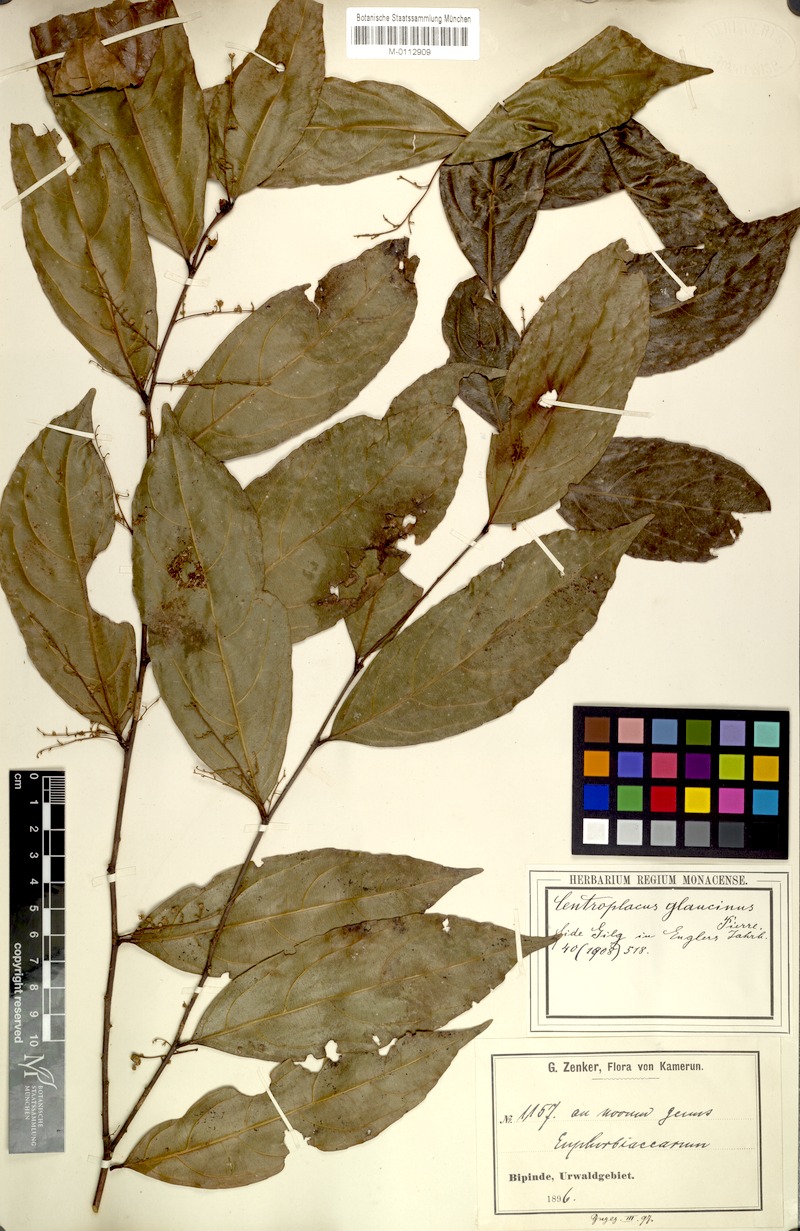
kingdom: Plantae
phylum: Tracheophyta
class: Magnoliopsida
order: Malpighiales
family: Centroplacaceae
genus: Centroplacus
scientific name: Centroplacus glaucinus
